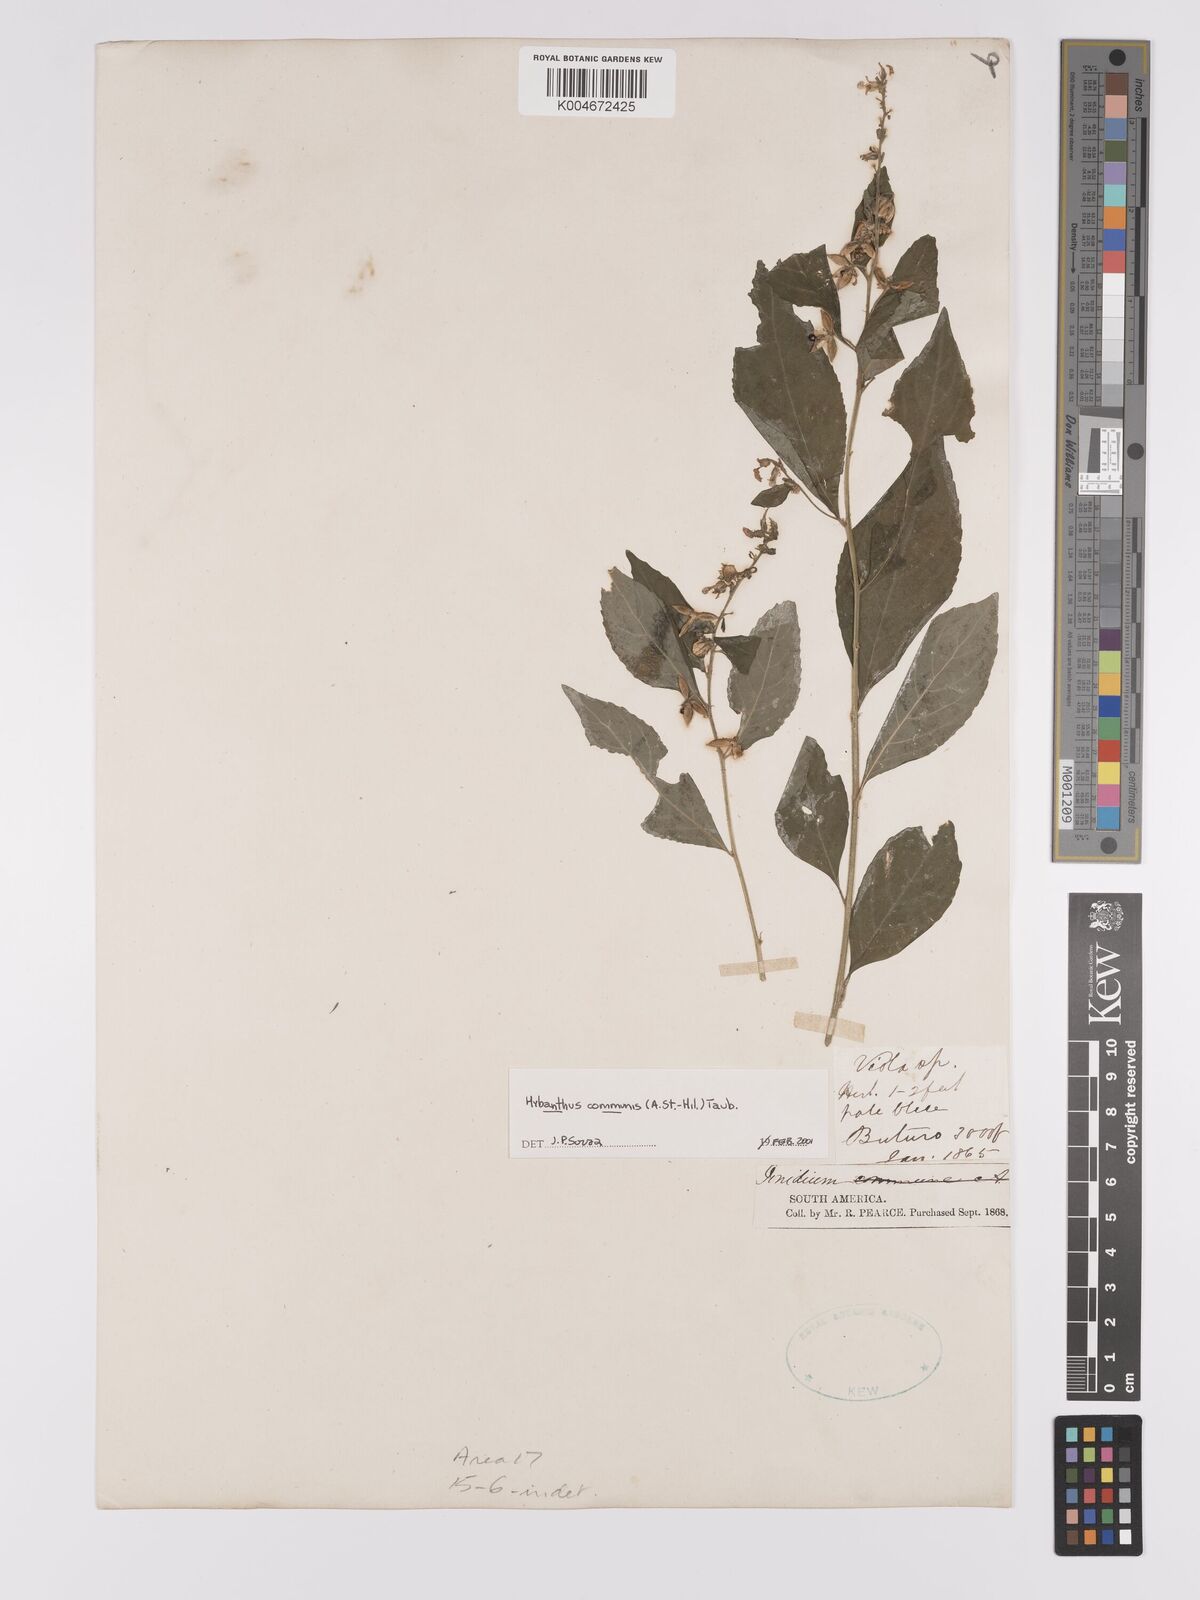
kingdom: Plantae
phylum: Tracheophyta
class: Magnoliopsida
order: Malpighiales
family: Violaceae
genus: Pombalia
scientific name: Pombalia communis
